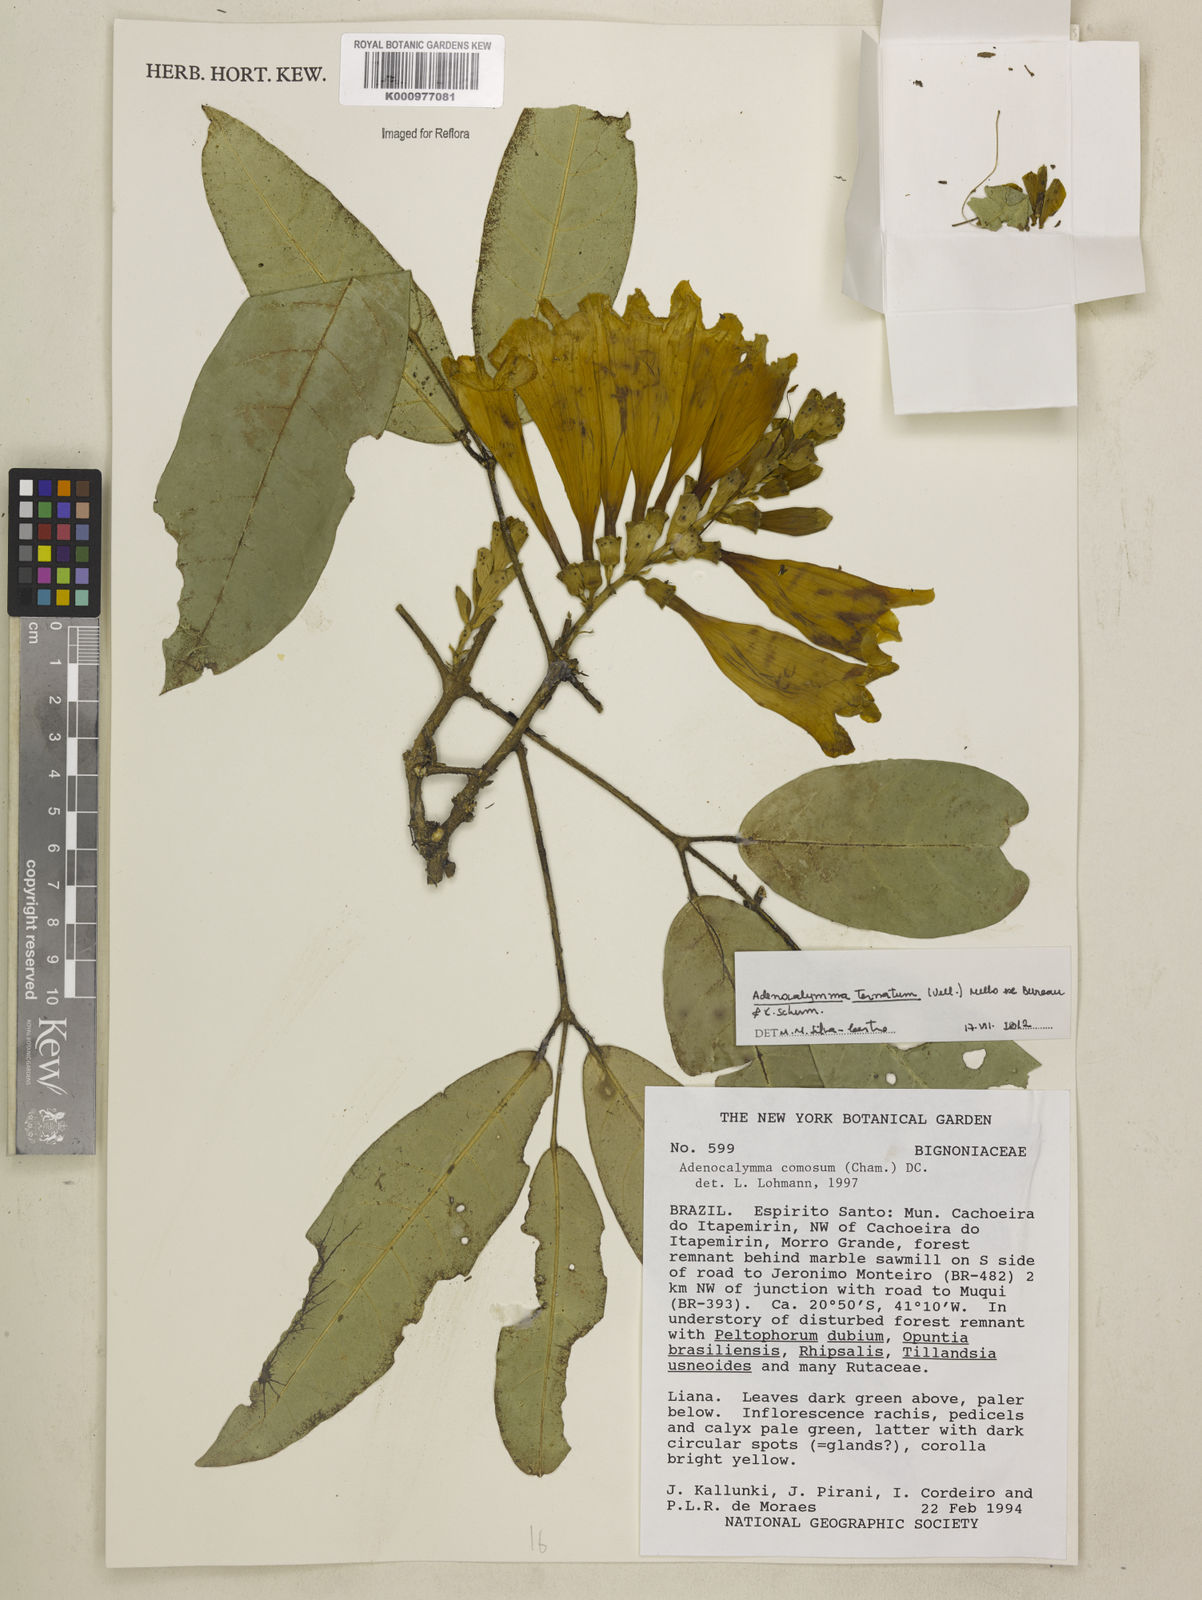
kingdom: Plantae
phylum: Tracheophyta
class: Magnoliopsida
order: Lamiales
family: Bignoniaceae
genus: Adenocalymma
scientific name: Adenocalymma ternatum
